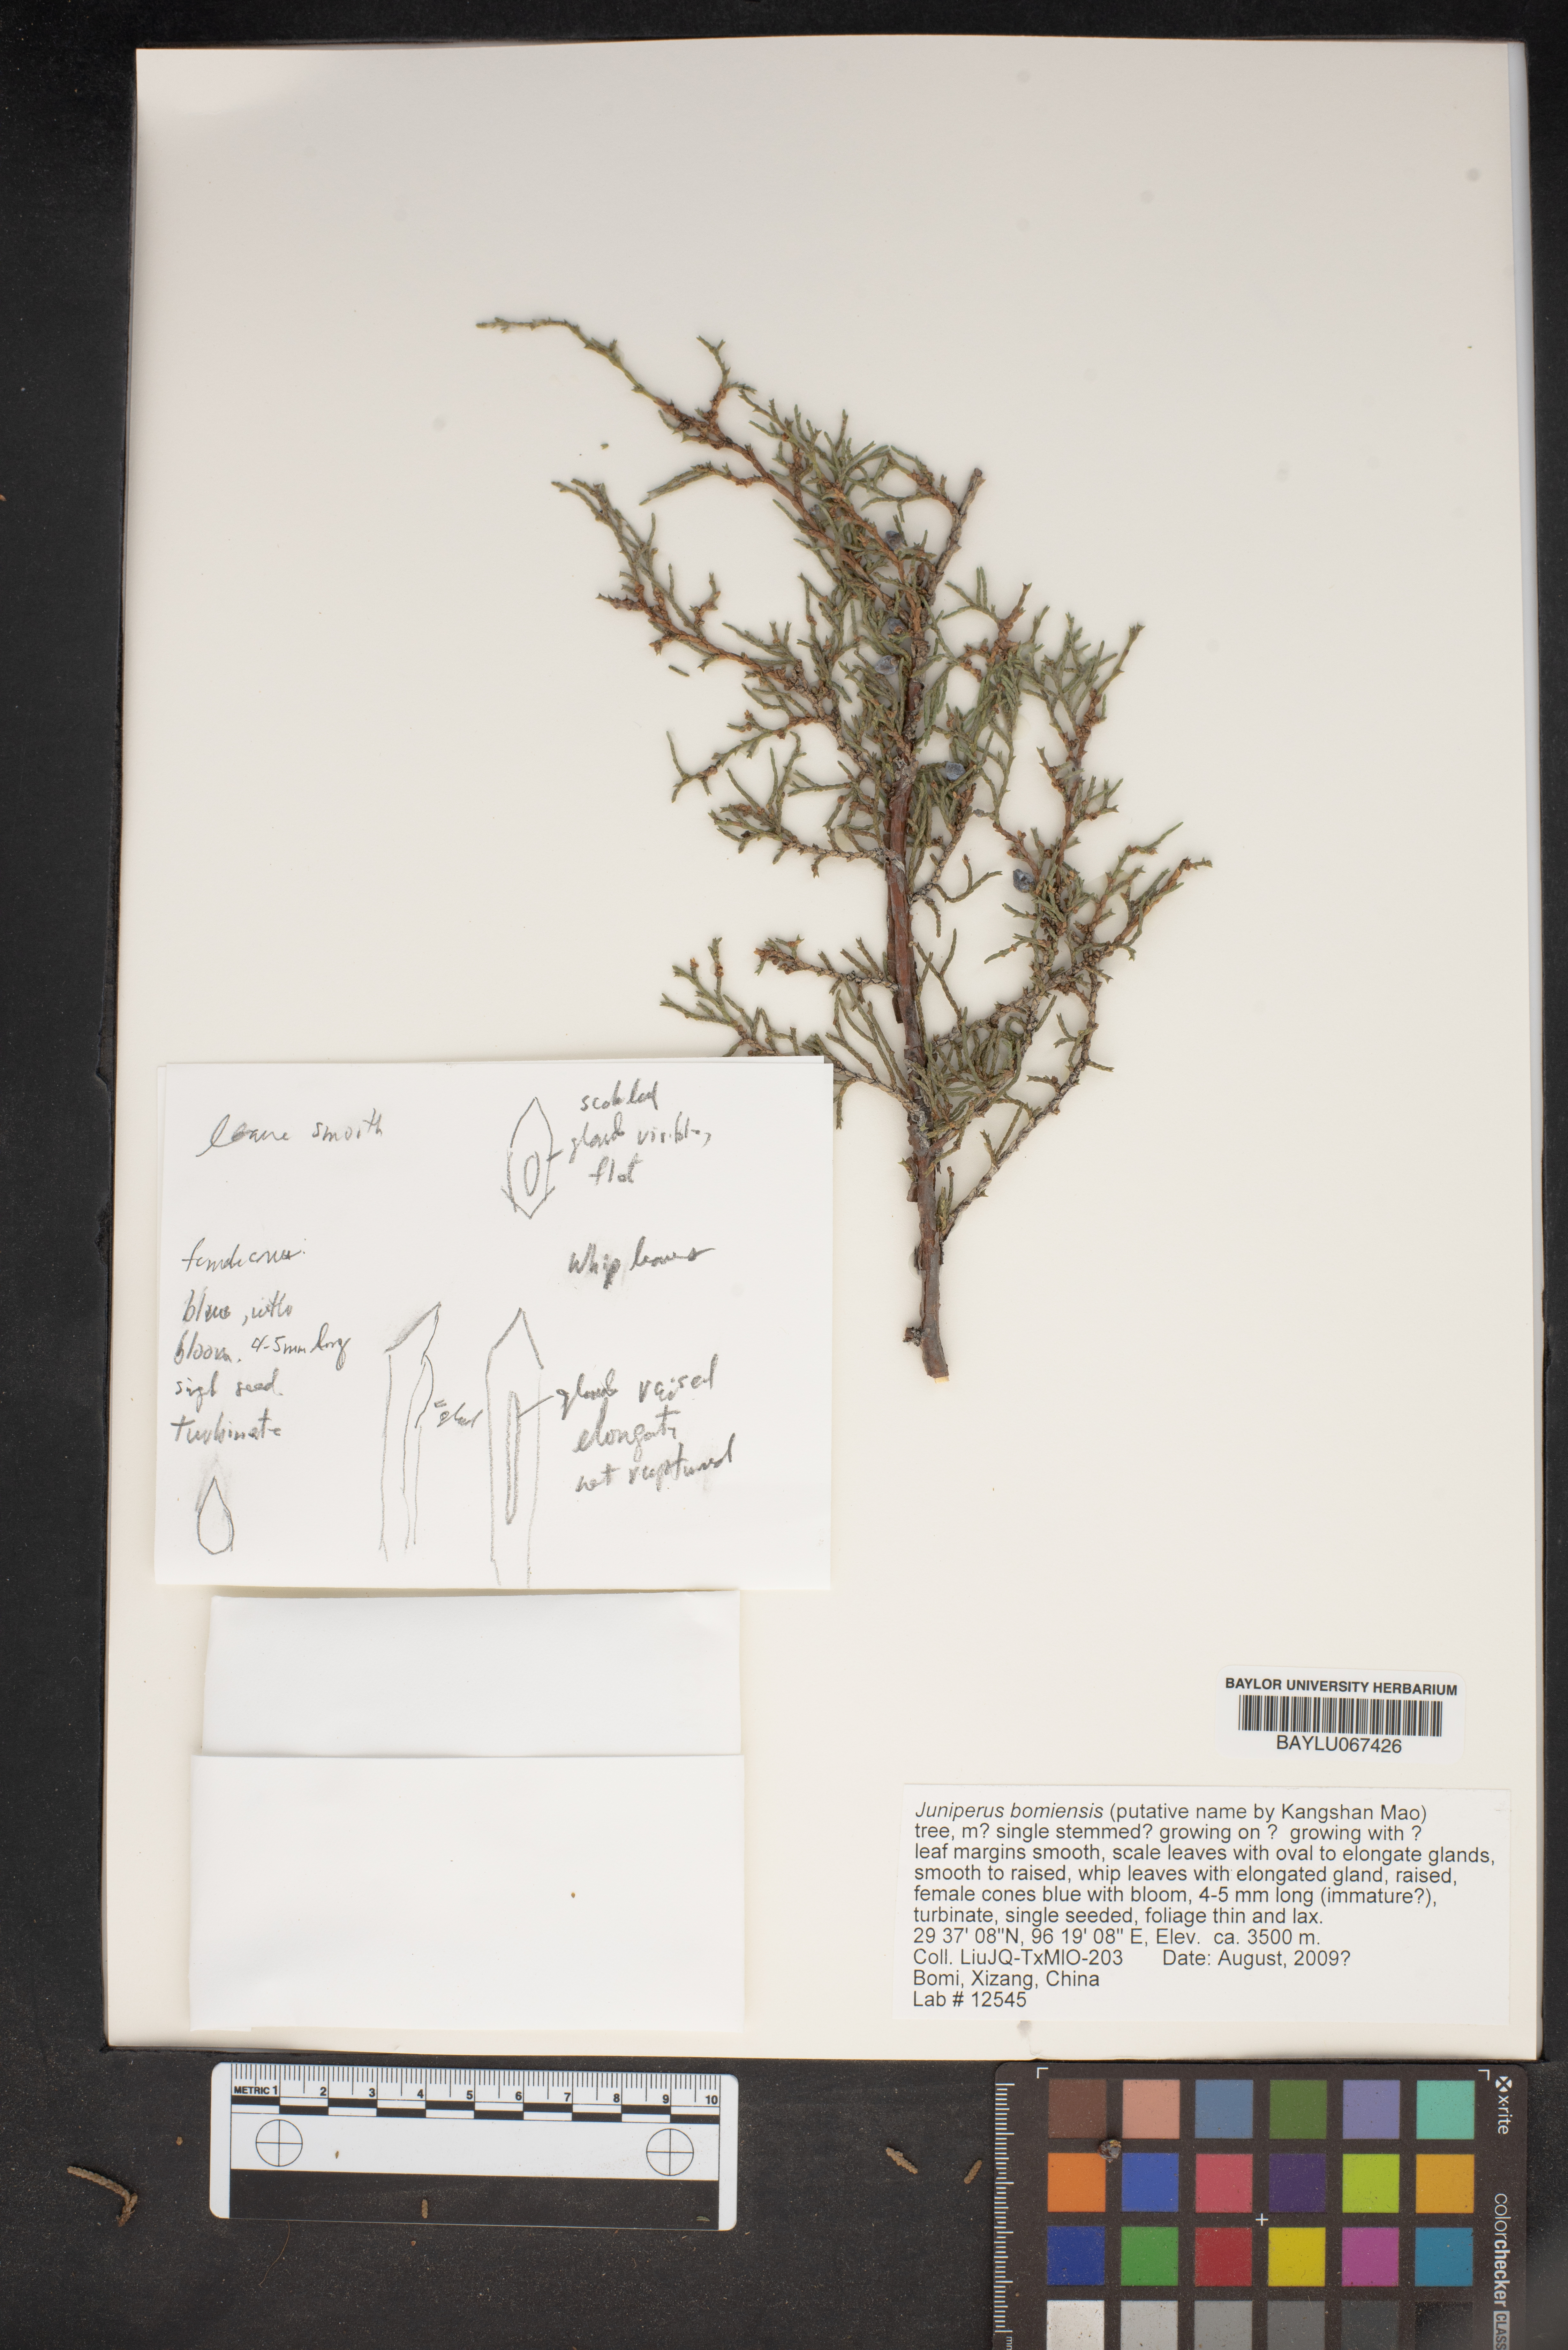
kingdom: Plantae
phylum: Tracheophyta
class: Pinopsida
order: Pinales
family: Cupressaceae
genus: Juniperus
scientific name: Juniperus
